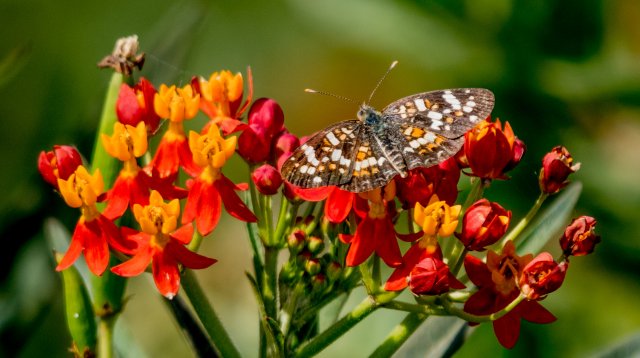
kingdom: Animalia
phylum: Arthropoda
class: Insecta
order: Lepidoptera
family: Nymphalidae
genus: Phyciodes
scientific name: Phyciodes picta
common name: Painted Crescent
